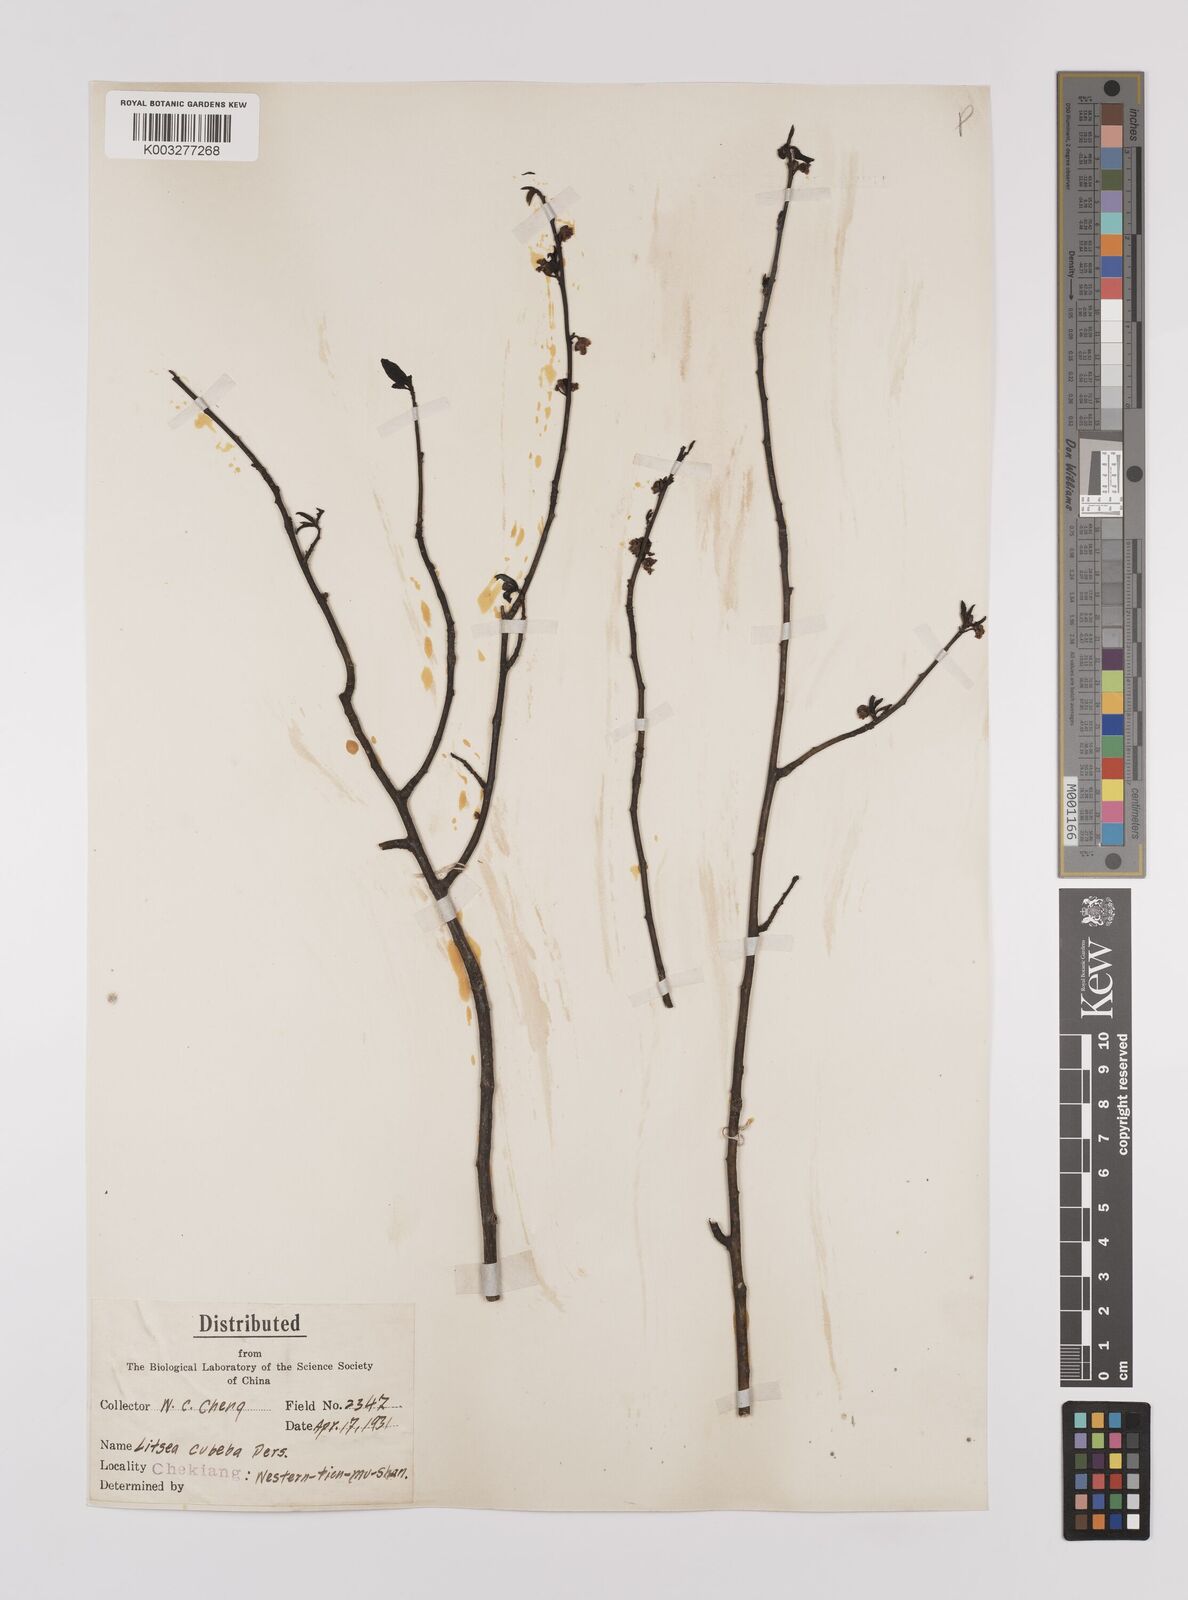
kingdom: Plantae
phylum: Tracheophyta
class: Magnoliopsida
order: Laurales
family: Lauraceae
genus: Litsea
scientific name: Litsea cubeba
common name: Mountain-pepper
